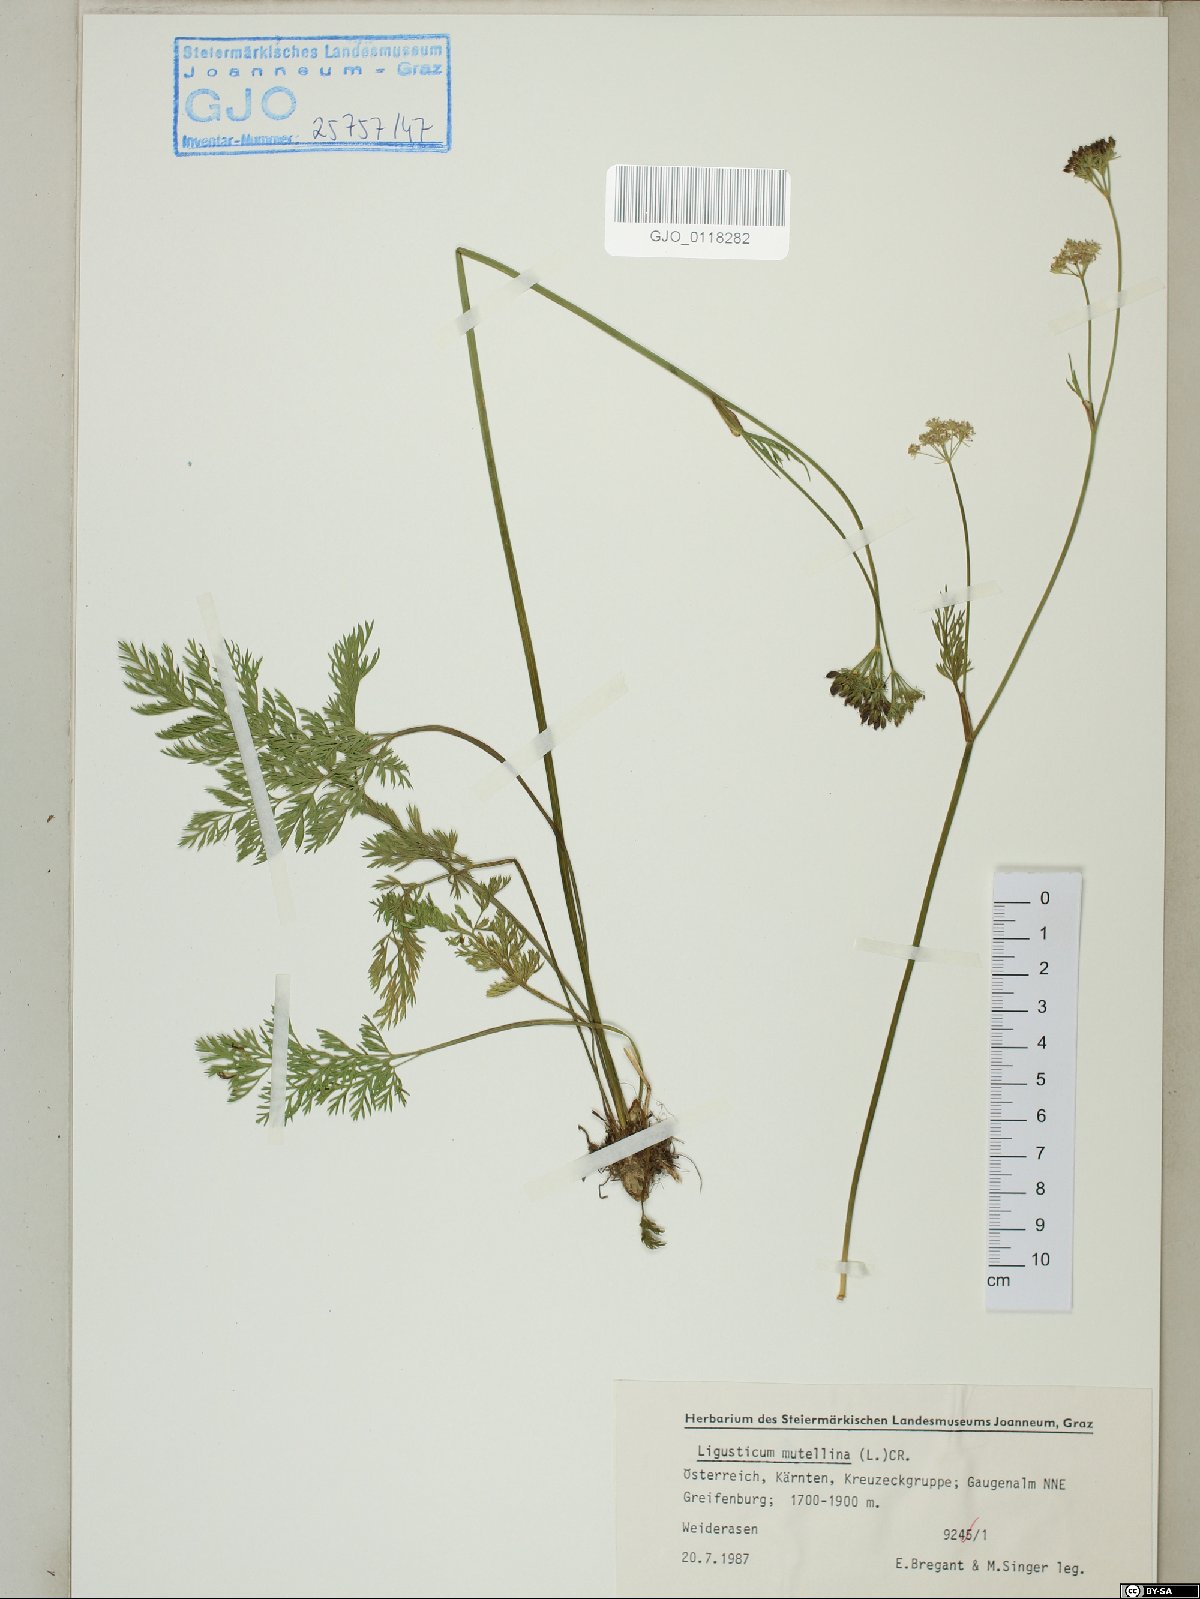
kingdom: Plantae
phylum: Tracheophyta
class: Magnoliopsida
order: Apiales
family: Apiaceae
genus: Mutellina
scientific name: Mutellina adonidifolia
